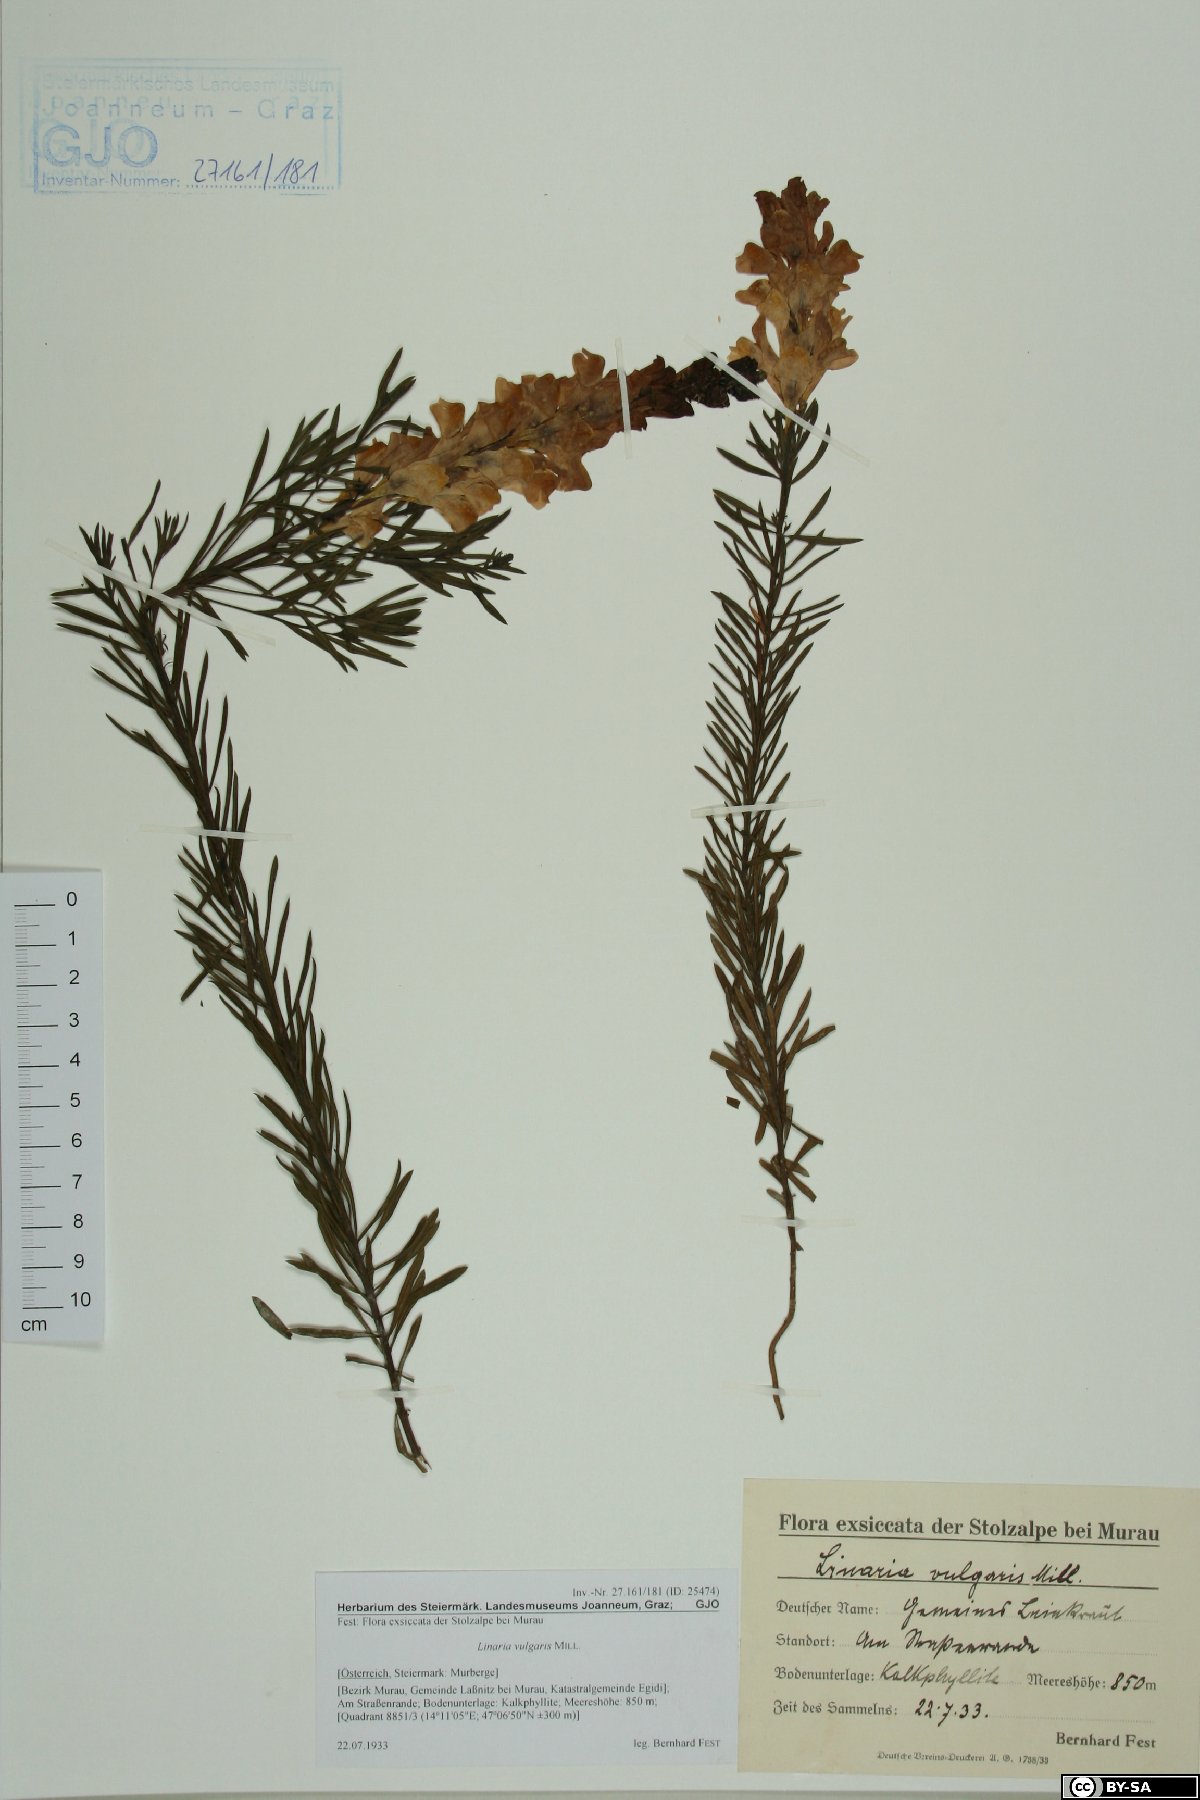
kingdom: Plantae
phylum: Tracheophyta
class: Magnoliopsida
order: Lamiales
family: Plantaginaceae
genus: Linaria
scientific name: Linaria vulgaris
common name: Butter and eggs
